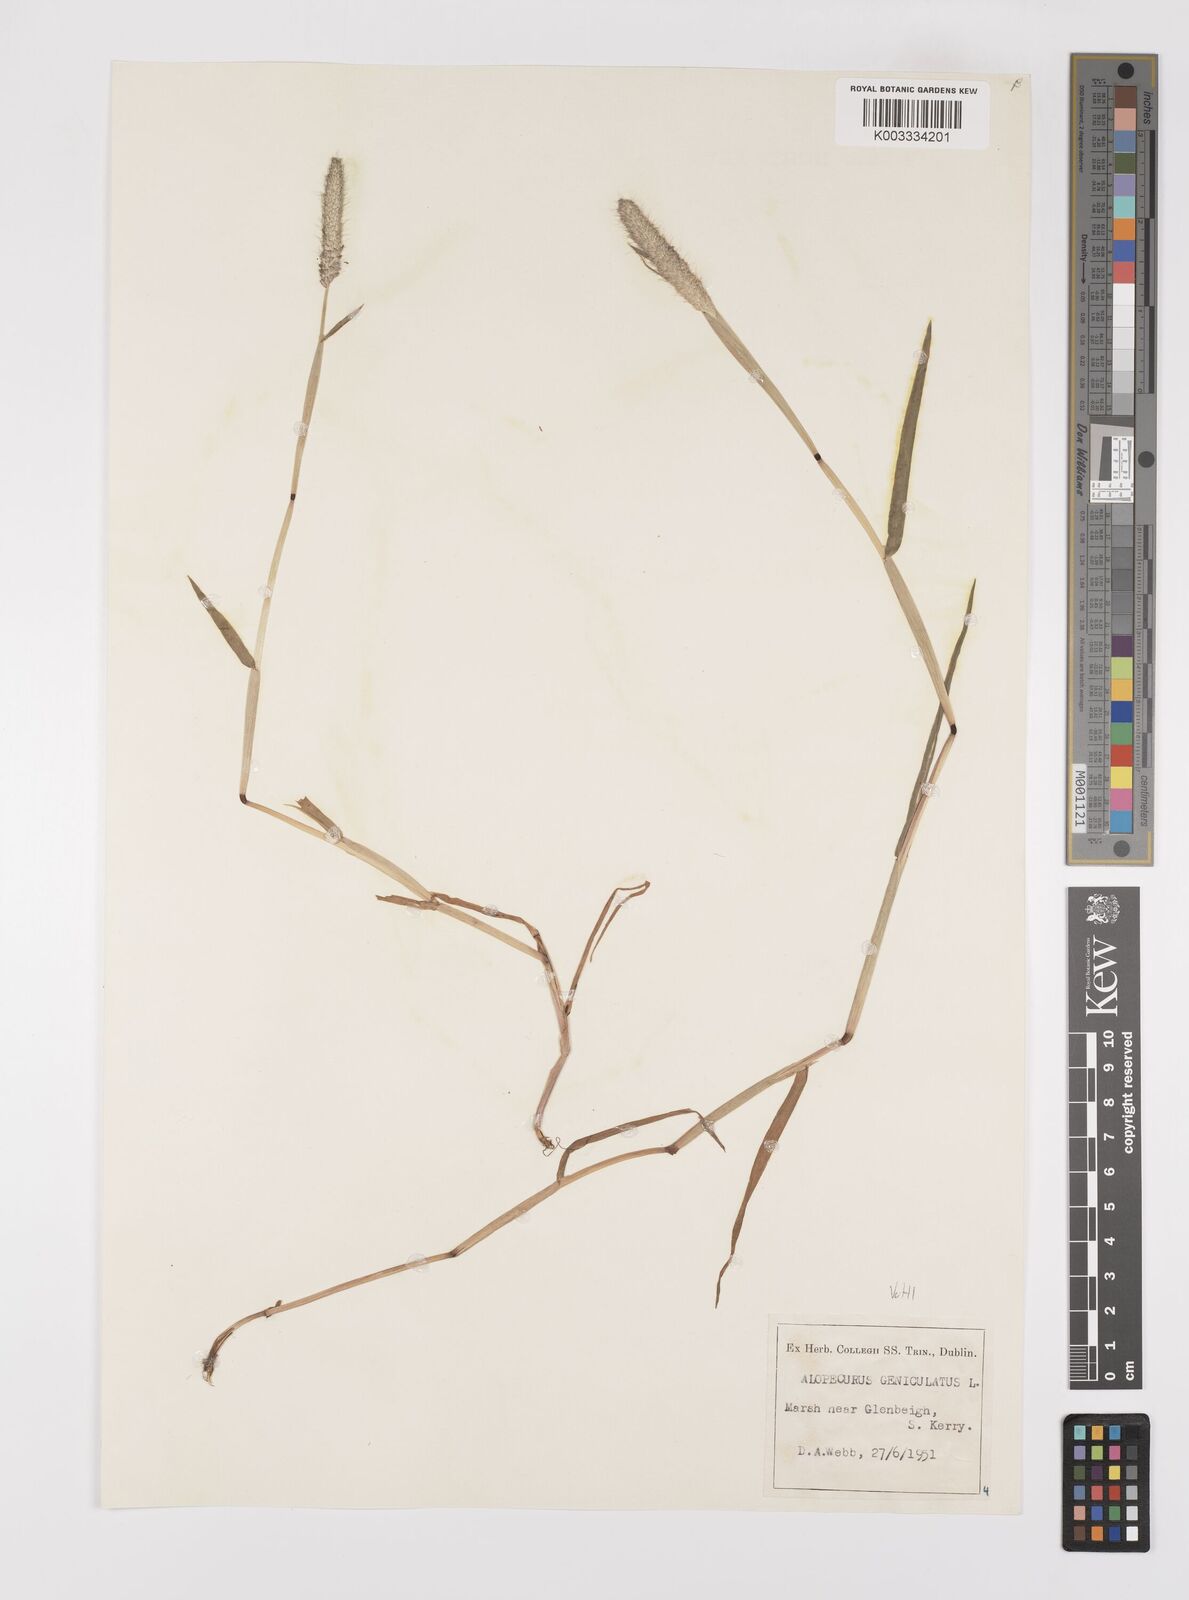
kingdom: Plantae
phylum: Tracheophyta
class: Liliopsida
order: Poales
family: Poaceae
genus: Alopecurus
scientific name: Alopecurus geniculatus
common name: Water foxtail
